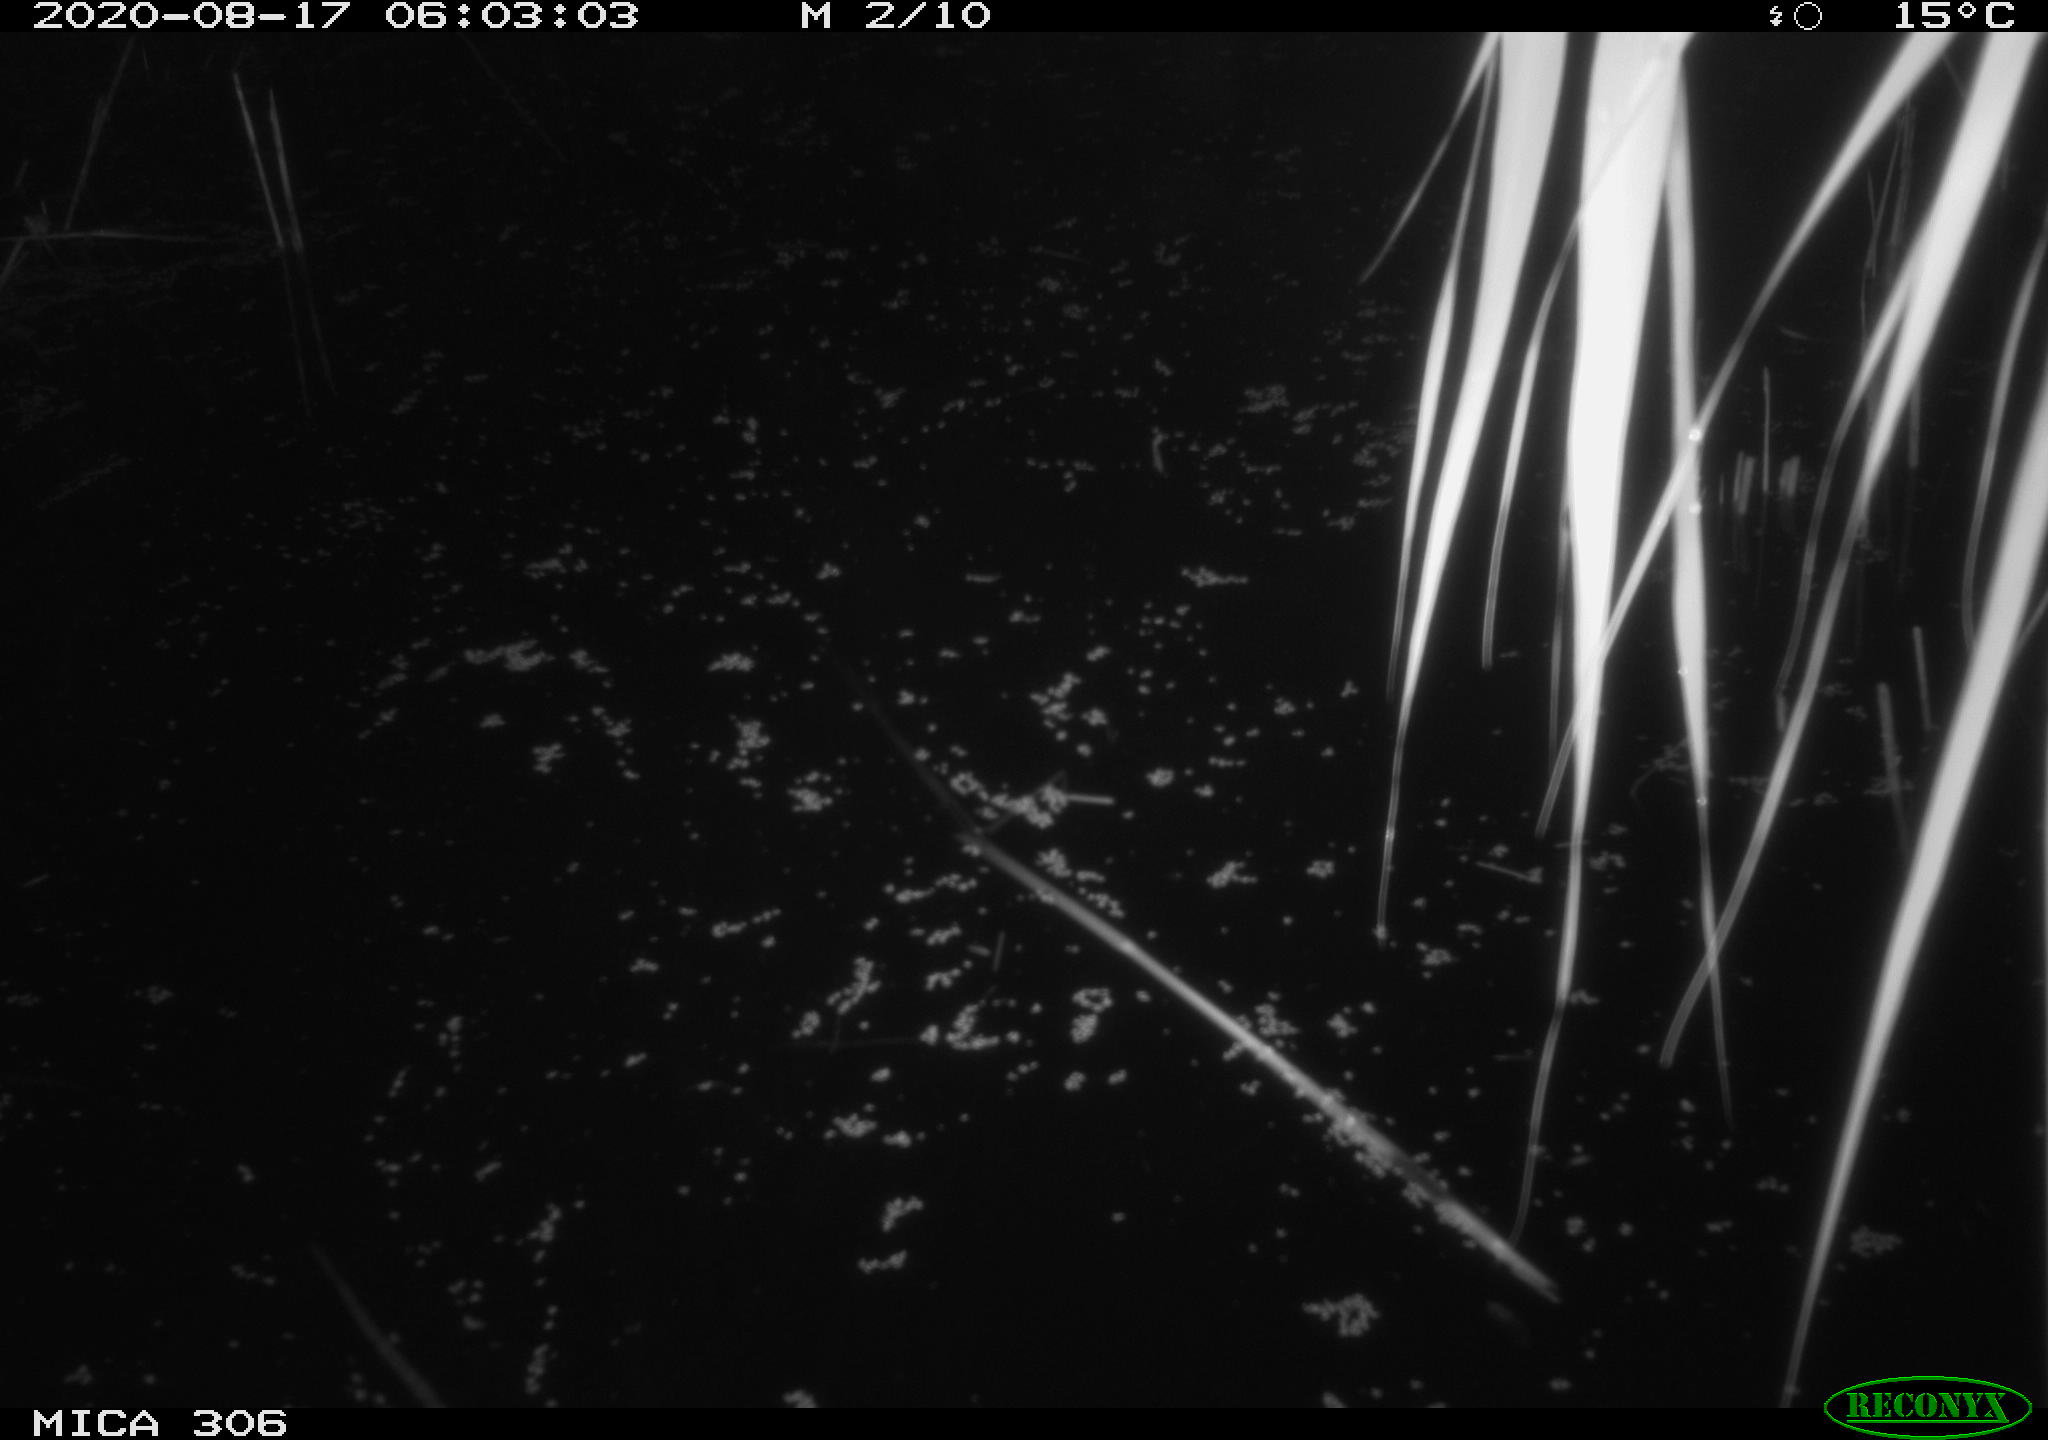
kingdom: Animalia
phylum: Chordata
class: Mammalia
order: Rodentia
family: Muridae
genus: Rattus
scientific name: Rattus norvegicus
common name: Brown rat
